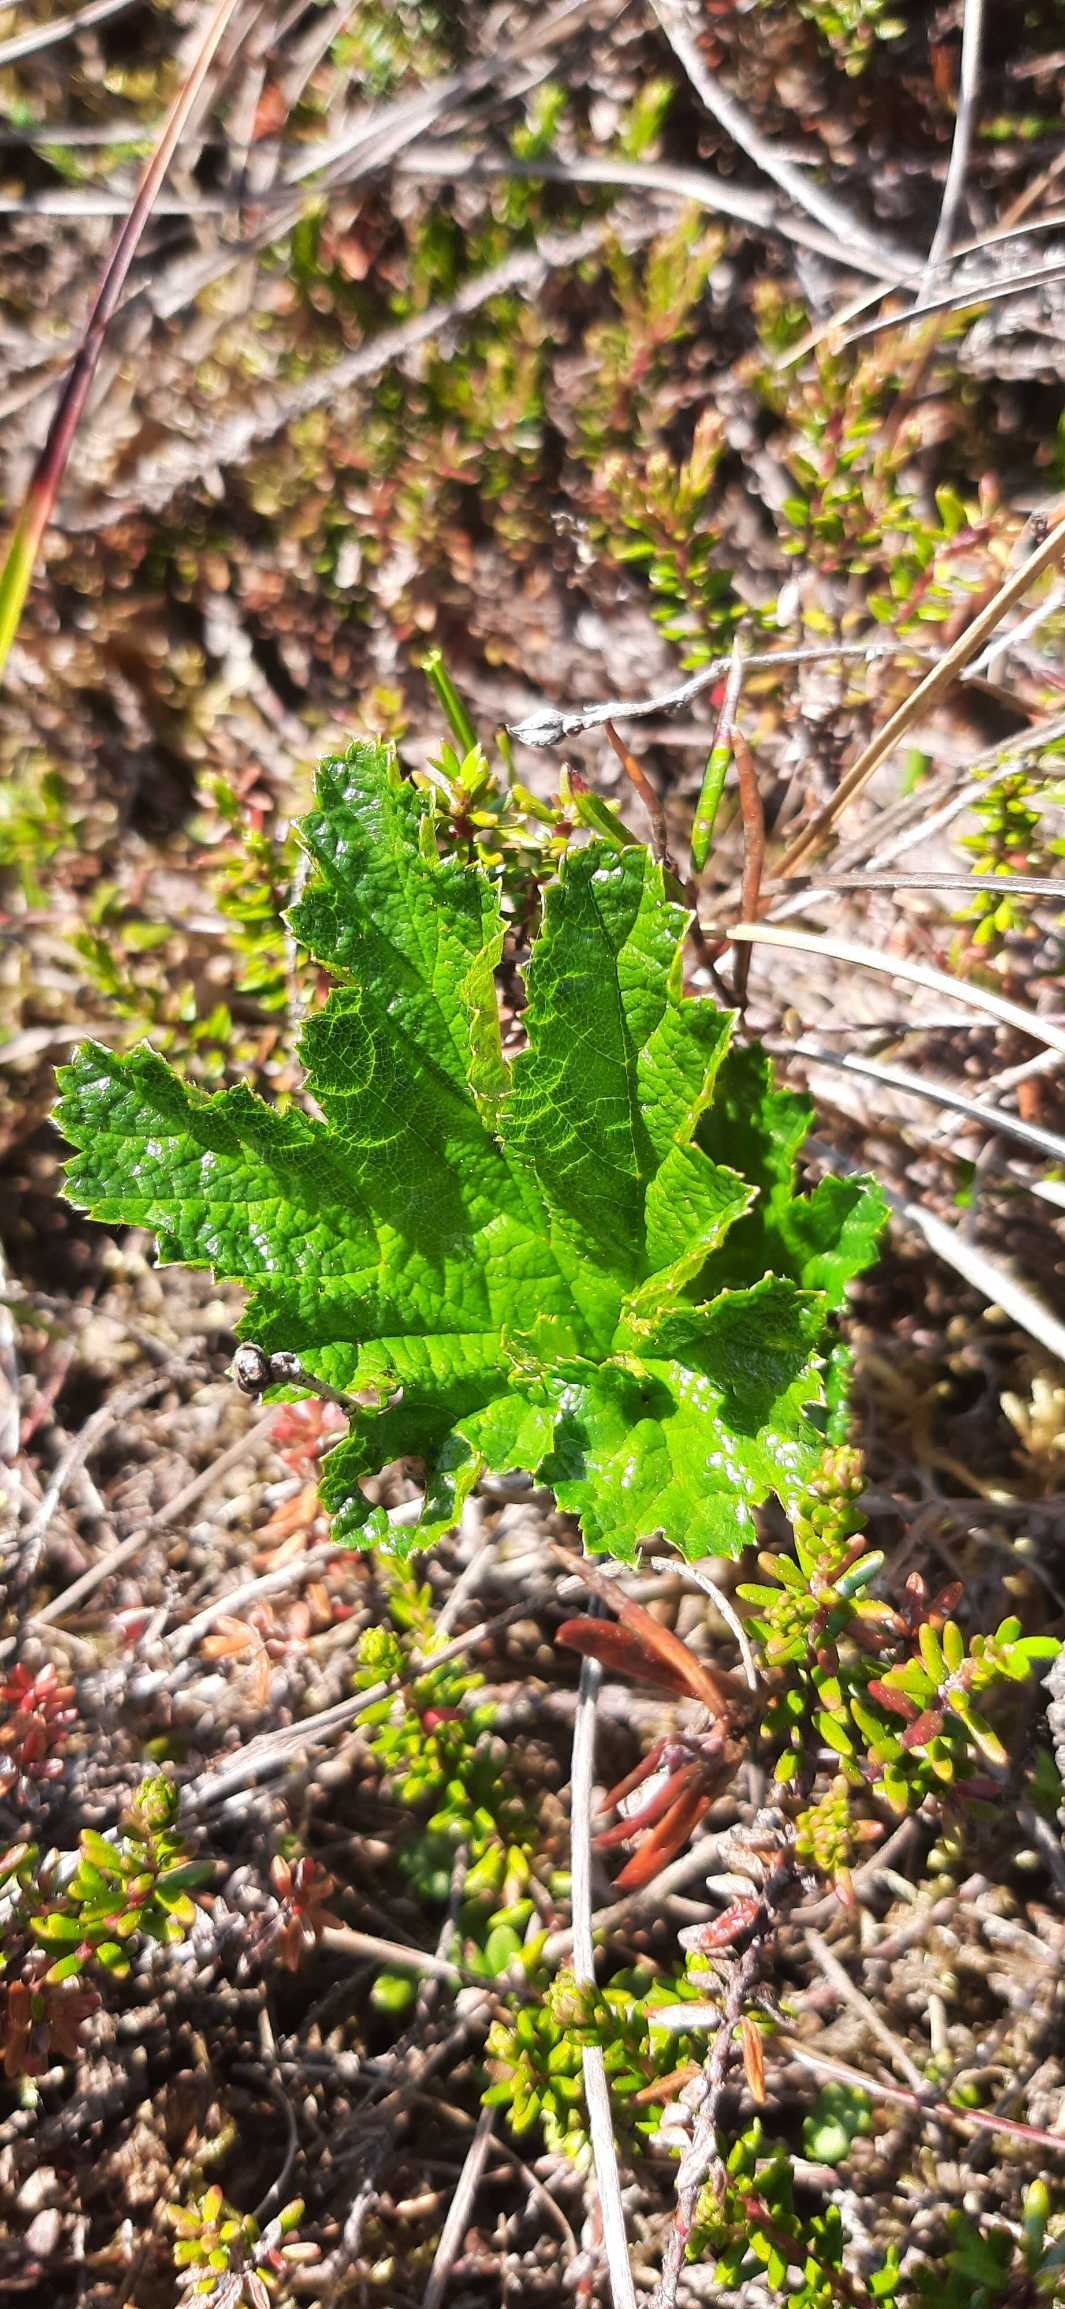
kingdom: Plantae
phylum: Tracheophyta
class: Magnoliopsida
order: Rosales
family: Rosaceae
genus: Rubus
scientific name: Rubus chamaemorus
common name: Multebær
